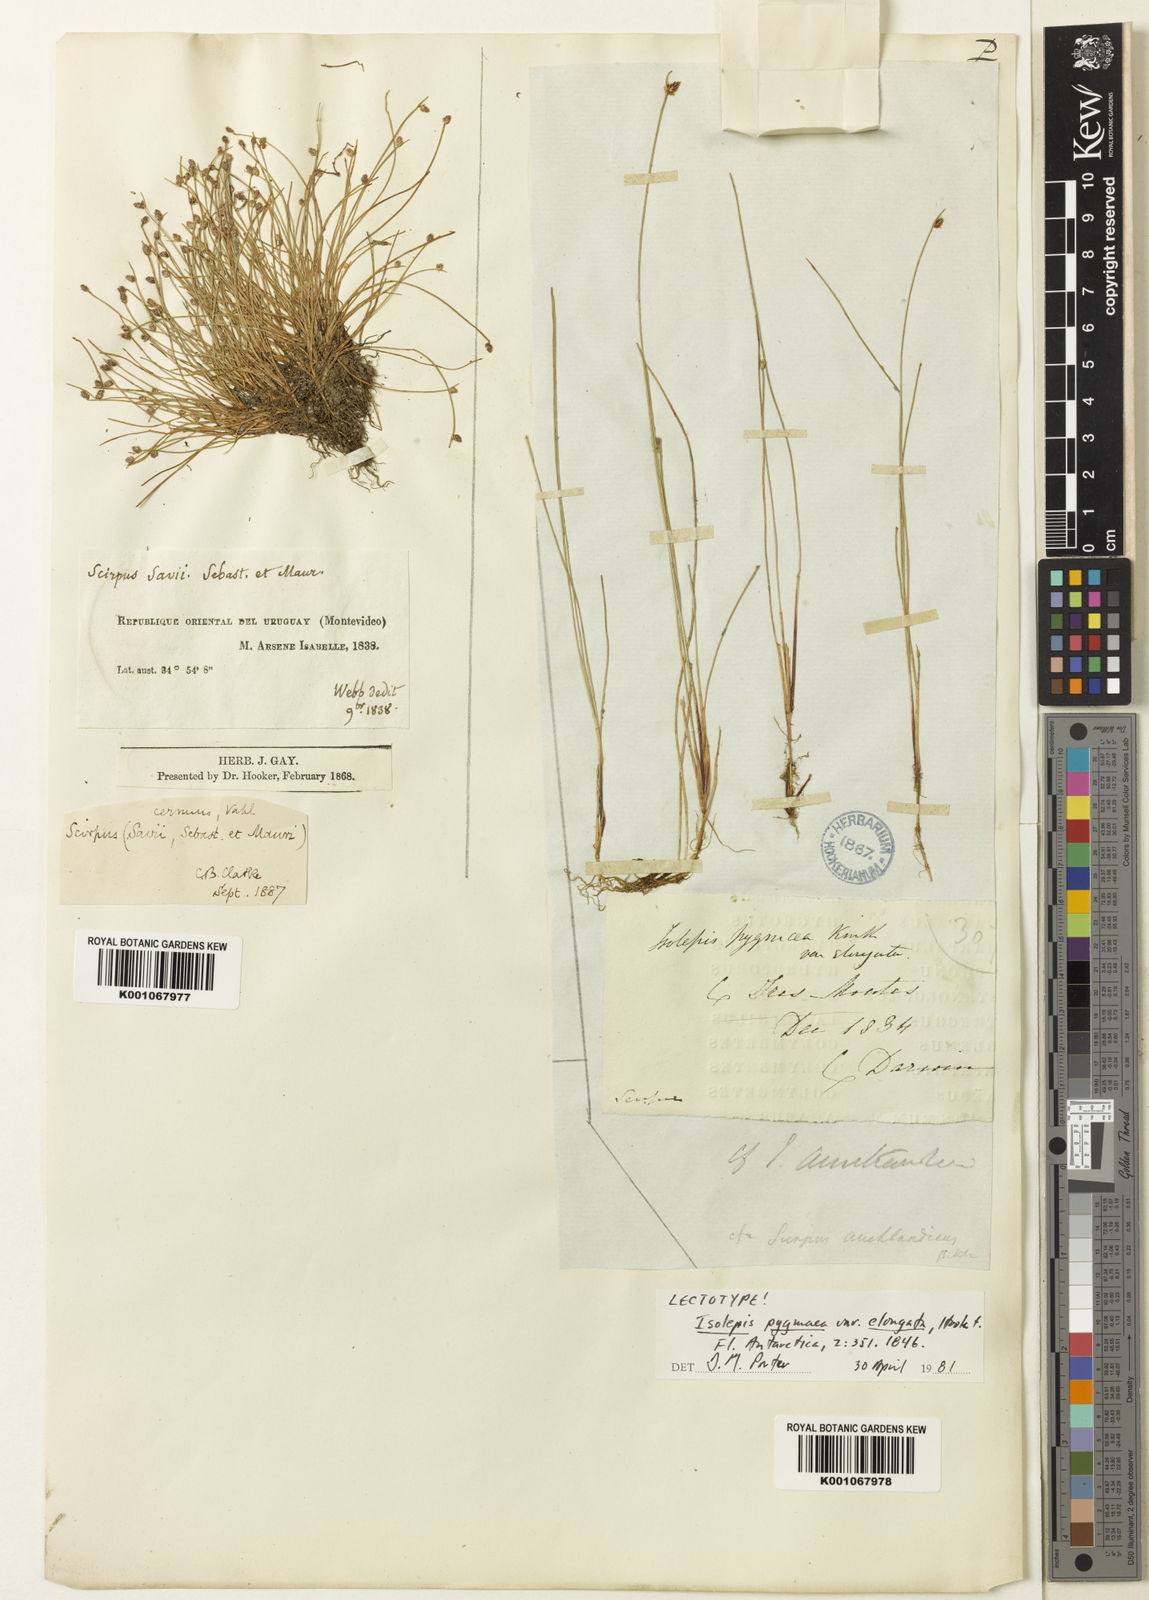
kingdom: Plantae
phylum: Tracheophyta
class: Liliopsida
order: Poales
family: Cyperaceae
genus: Isolepis
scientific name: Isolepis ranko
